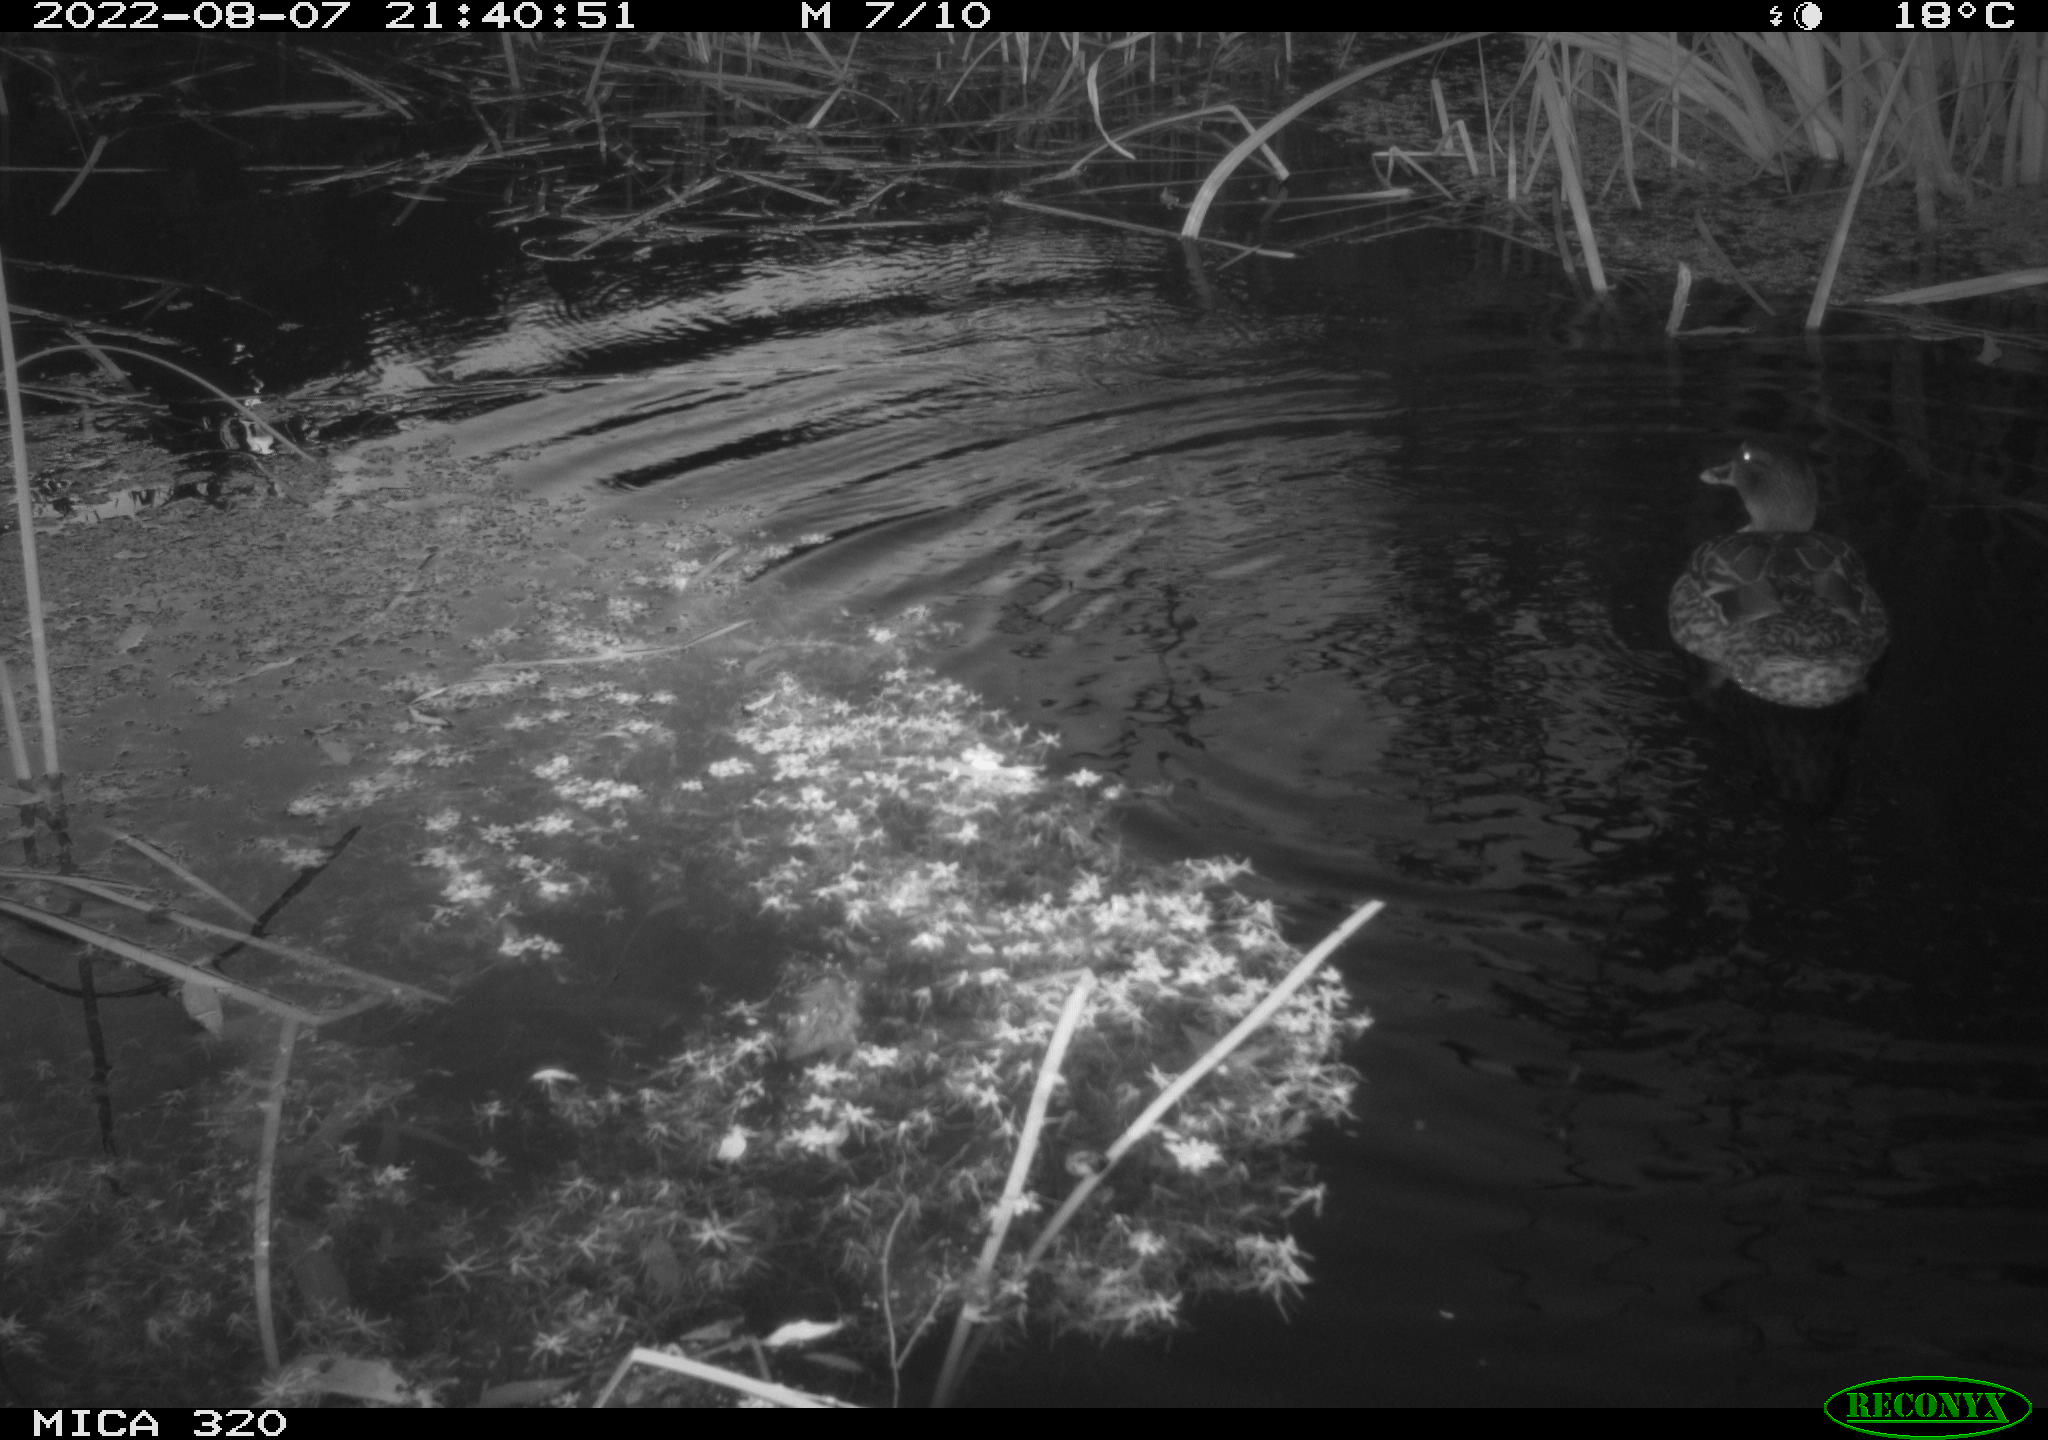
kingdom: Animalia
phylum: Chordata
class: Aves
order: Anseriformes
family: Anatidae
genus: Anas
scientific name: Anas platyrhynchos
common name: Mallard
